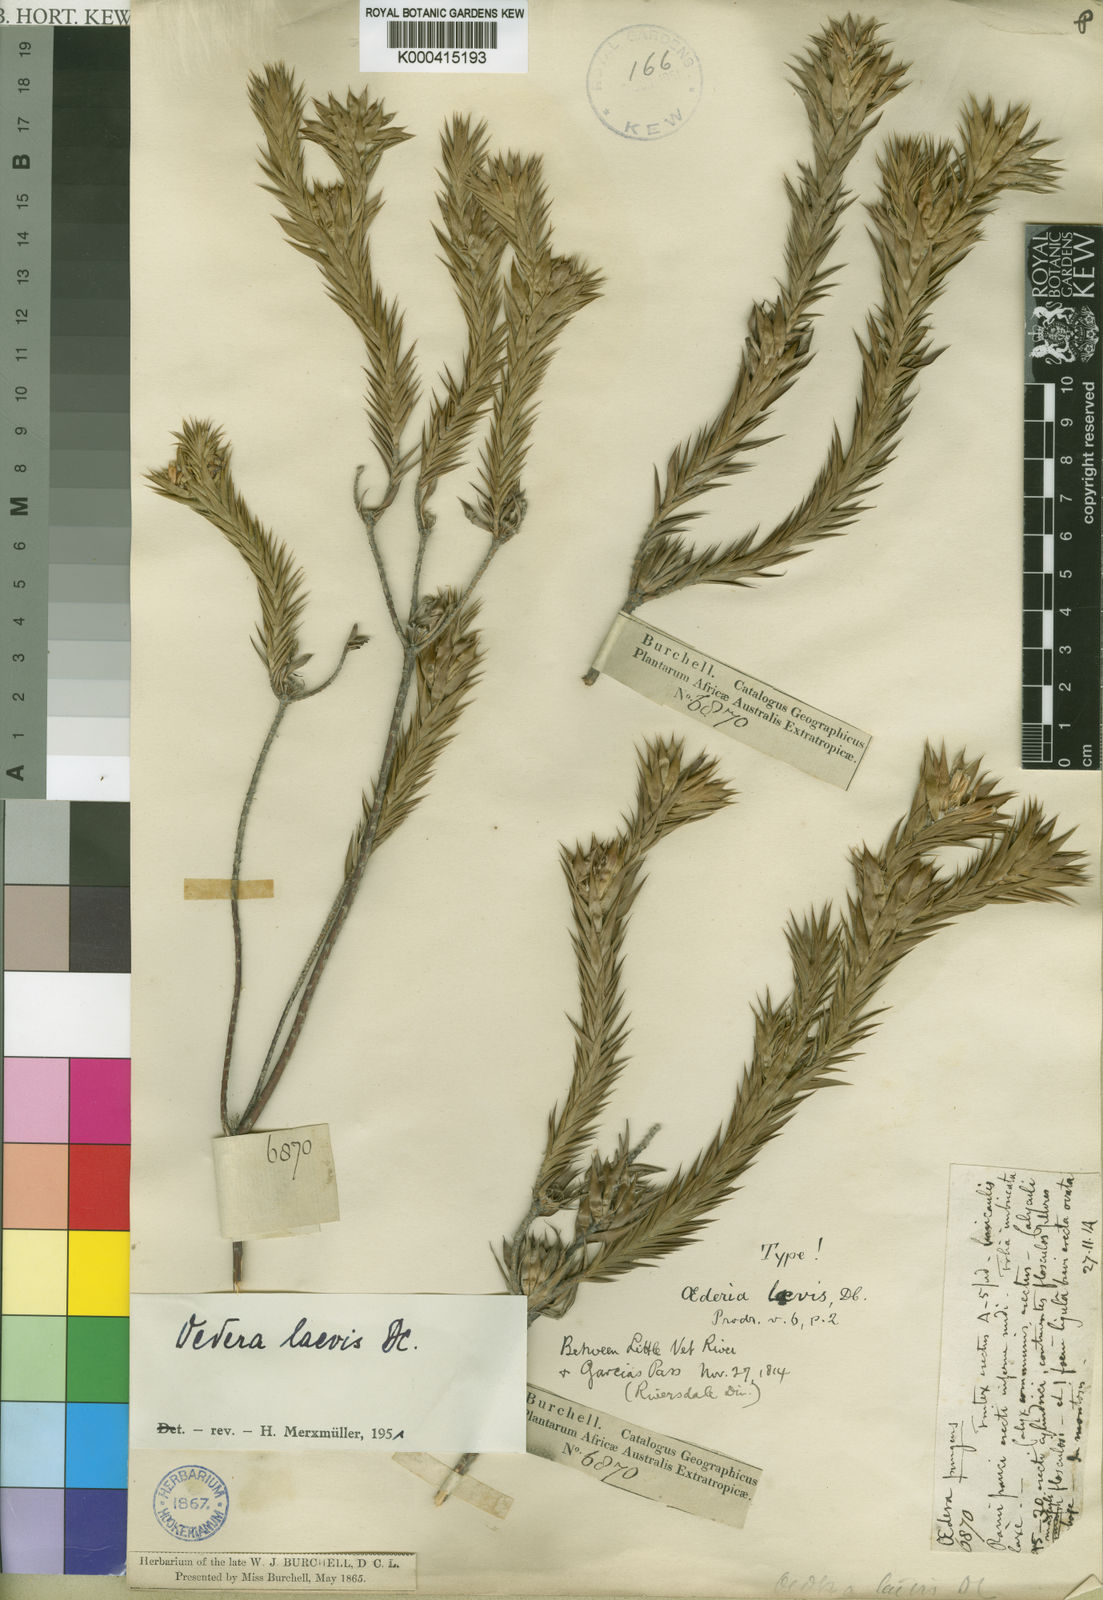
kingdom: Plantae
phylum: Tracheophyta
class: Magnoliopsida
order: Asterales
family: Asteraceae
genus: Oedera
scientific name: Oedera laevis
